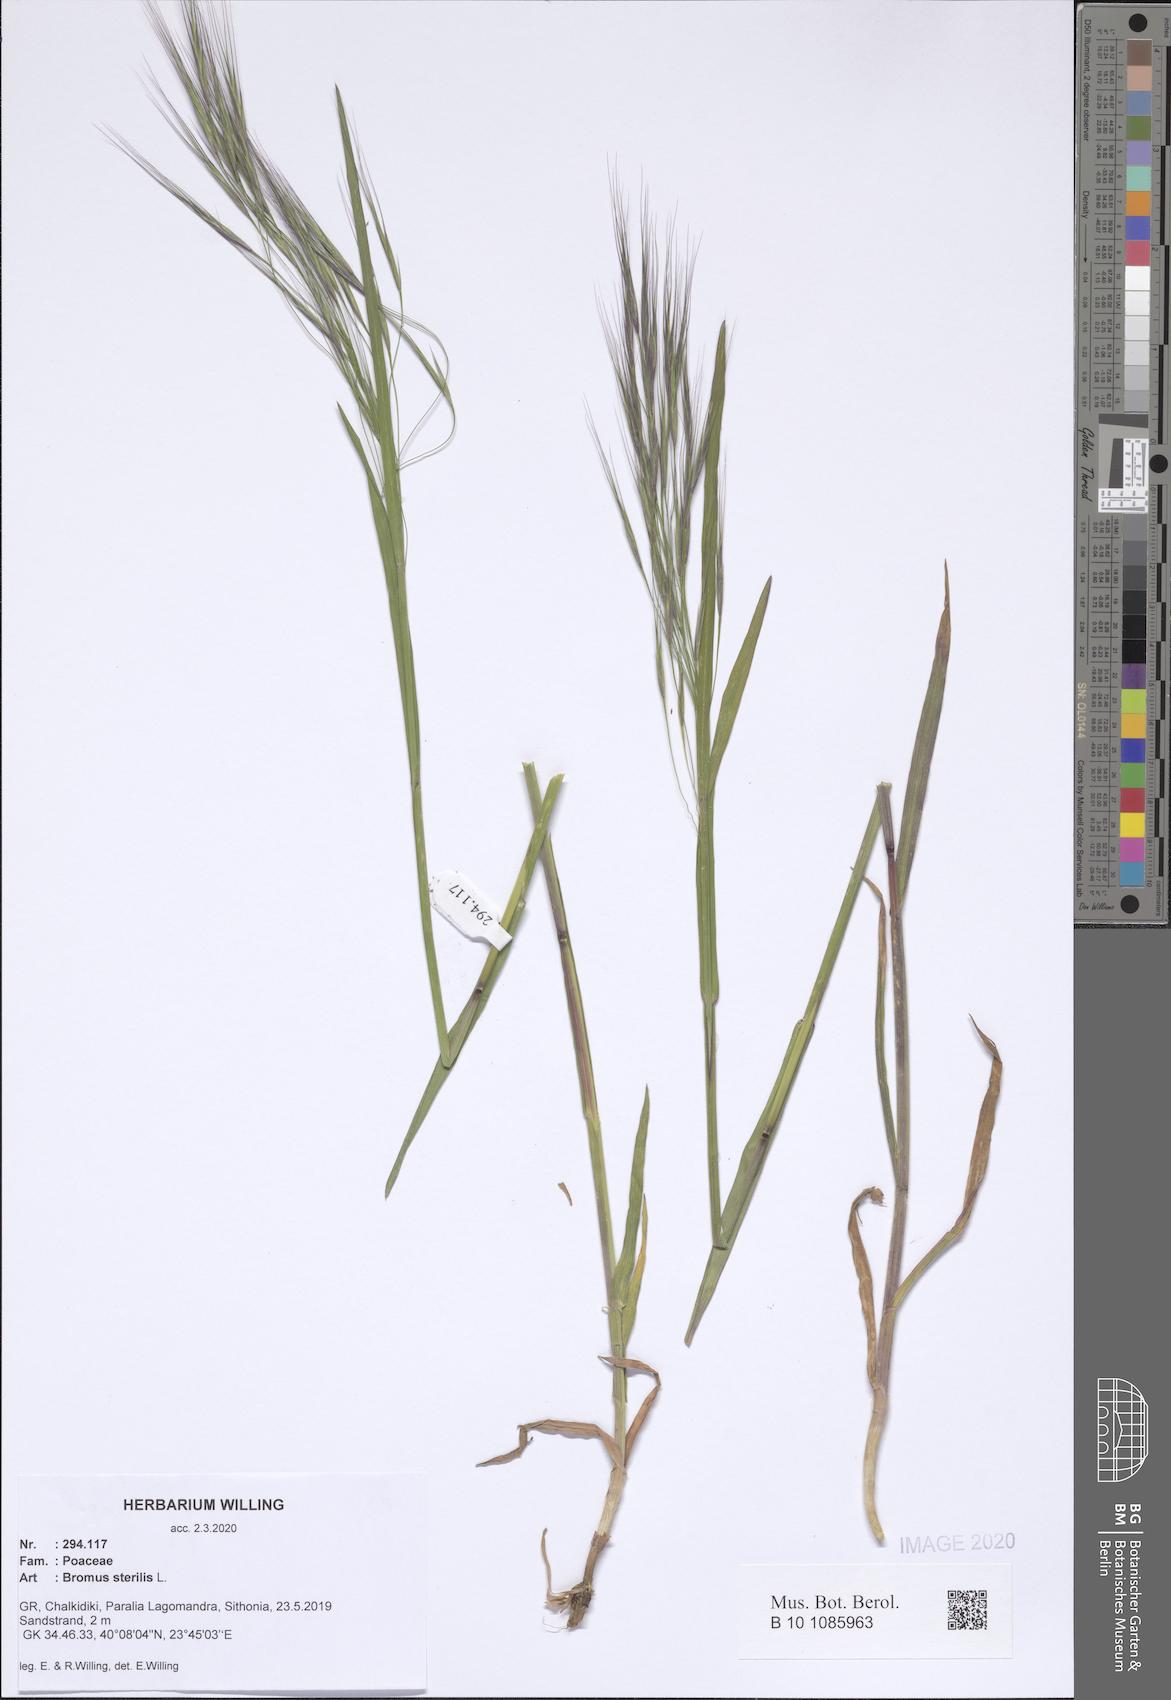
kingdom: Plantae
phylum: Tracheophyta
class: Liliopsida
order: Poales
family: Poaceae
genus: Bromus
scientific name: Bromus sterilis
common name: Poverty brome
